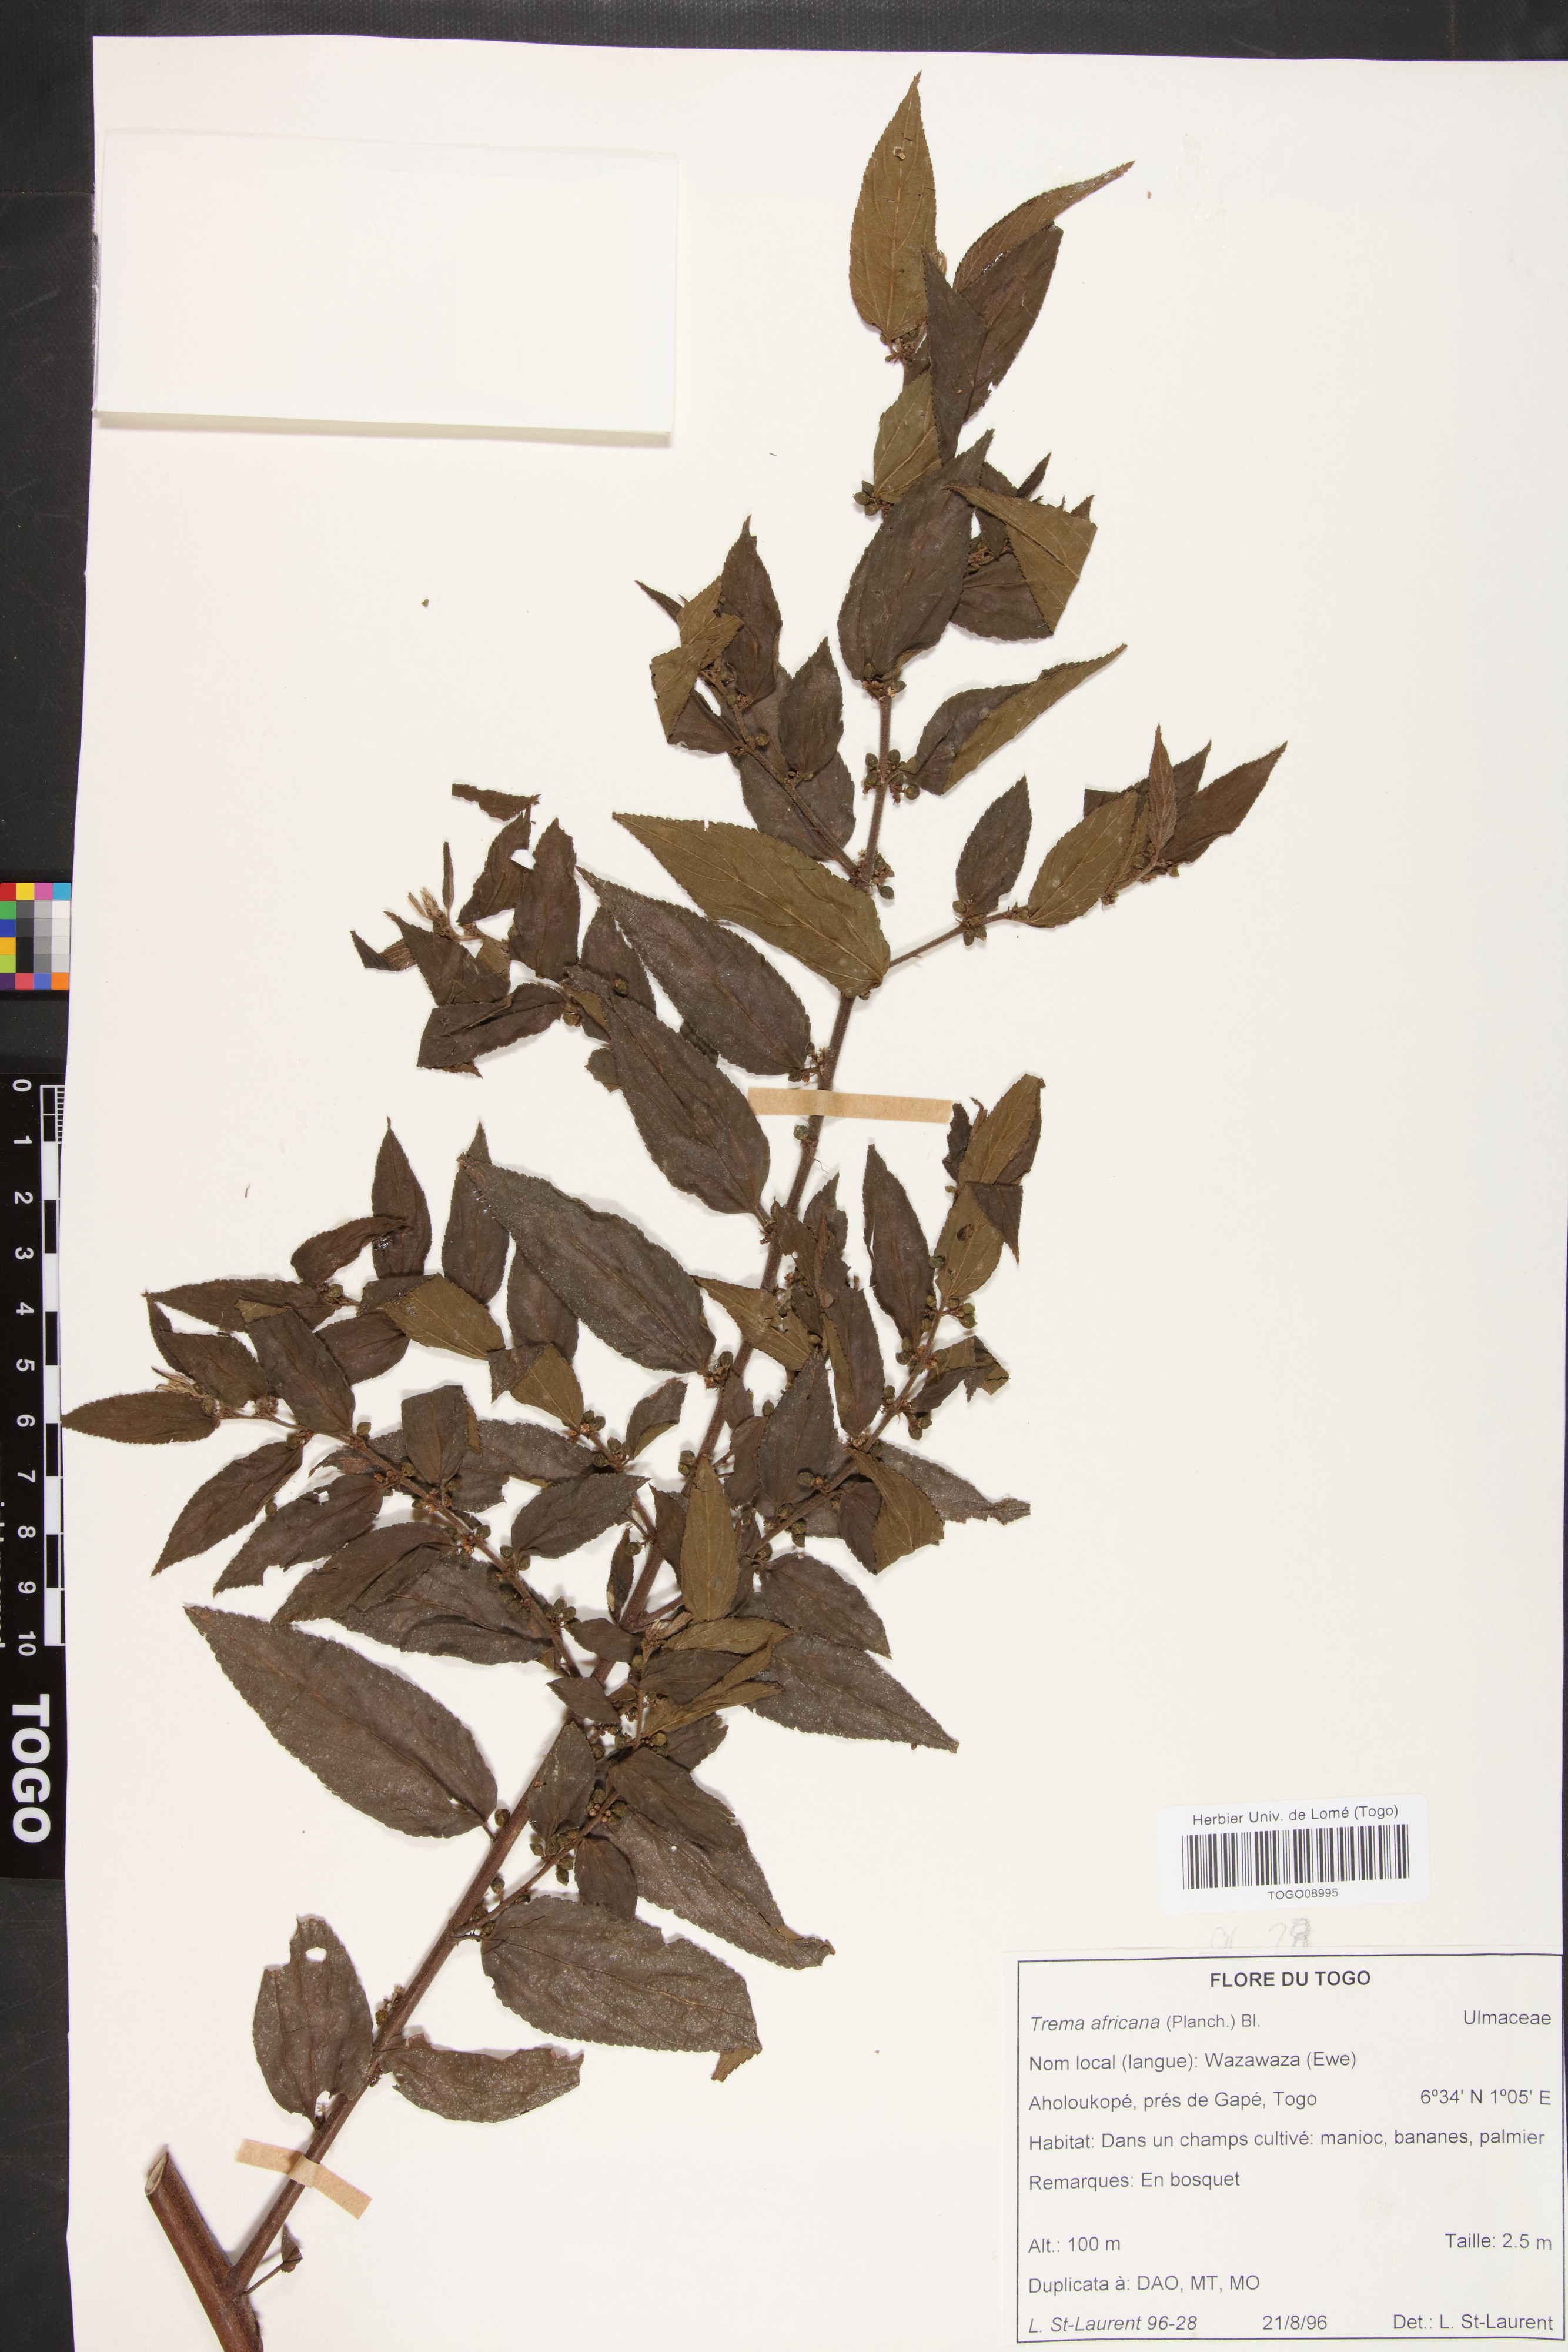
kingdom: Plantae
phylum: Tracheophyta
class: Magnoliopsida
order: Rosales
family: Cannabaceae
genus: Trema
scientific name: Trema orientale
